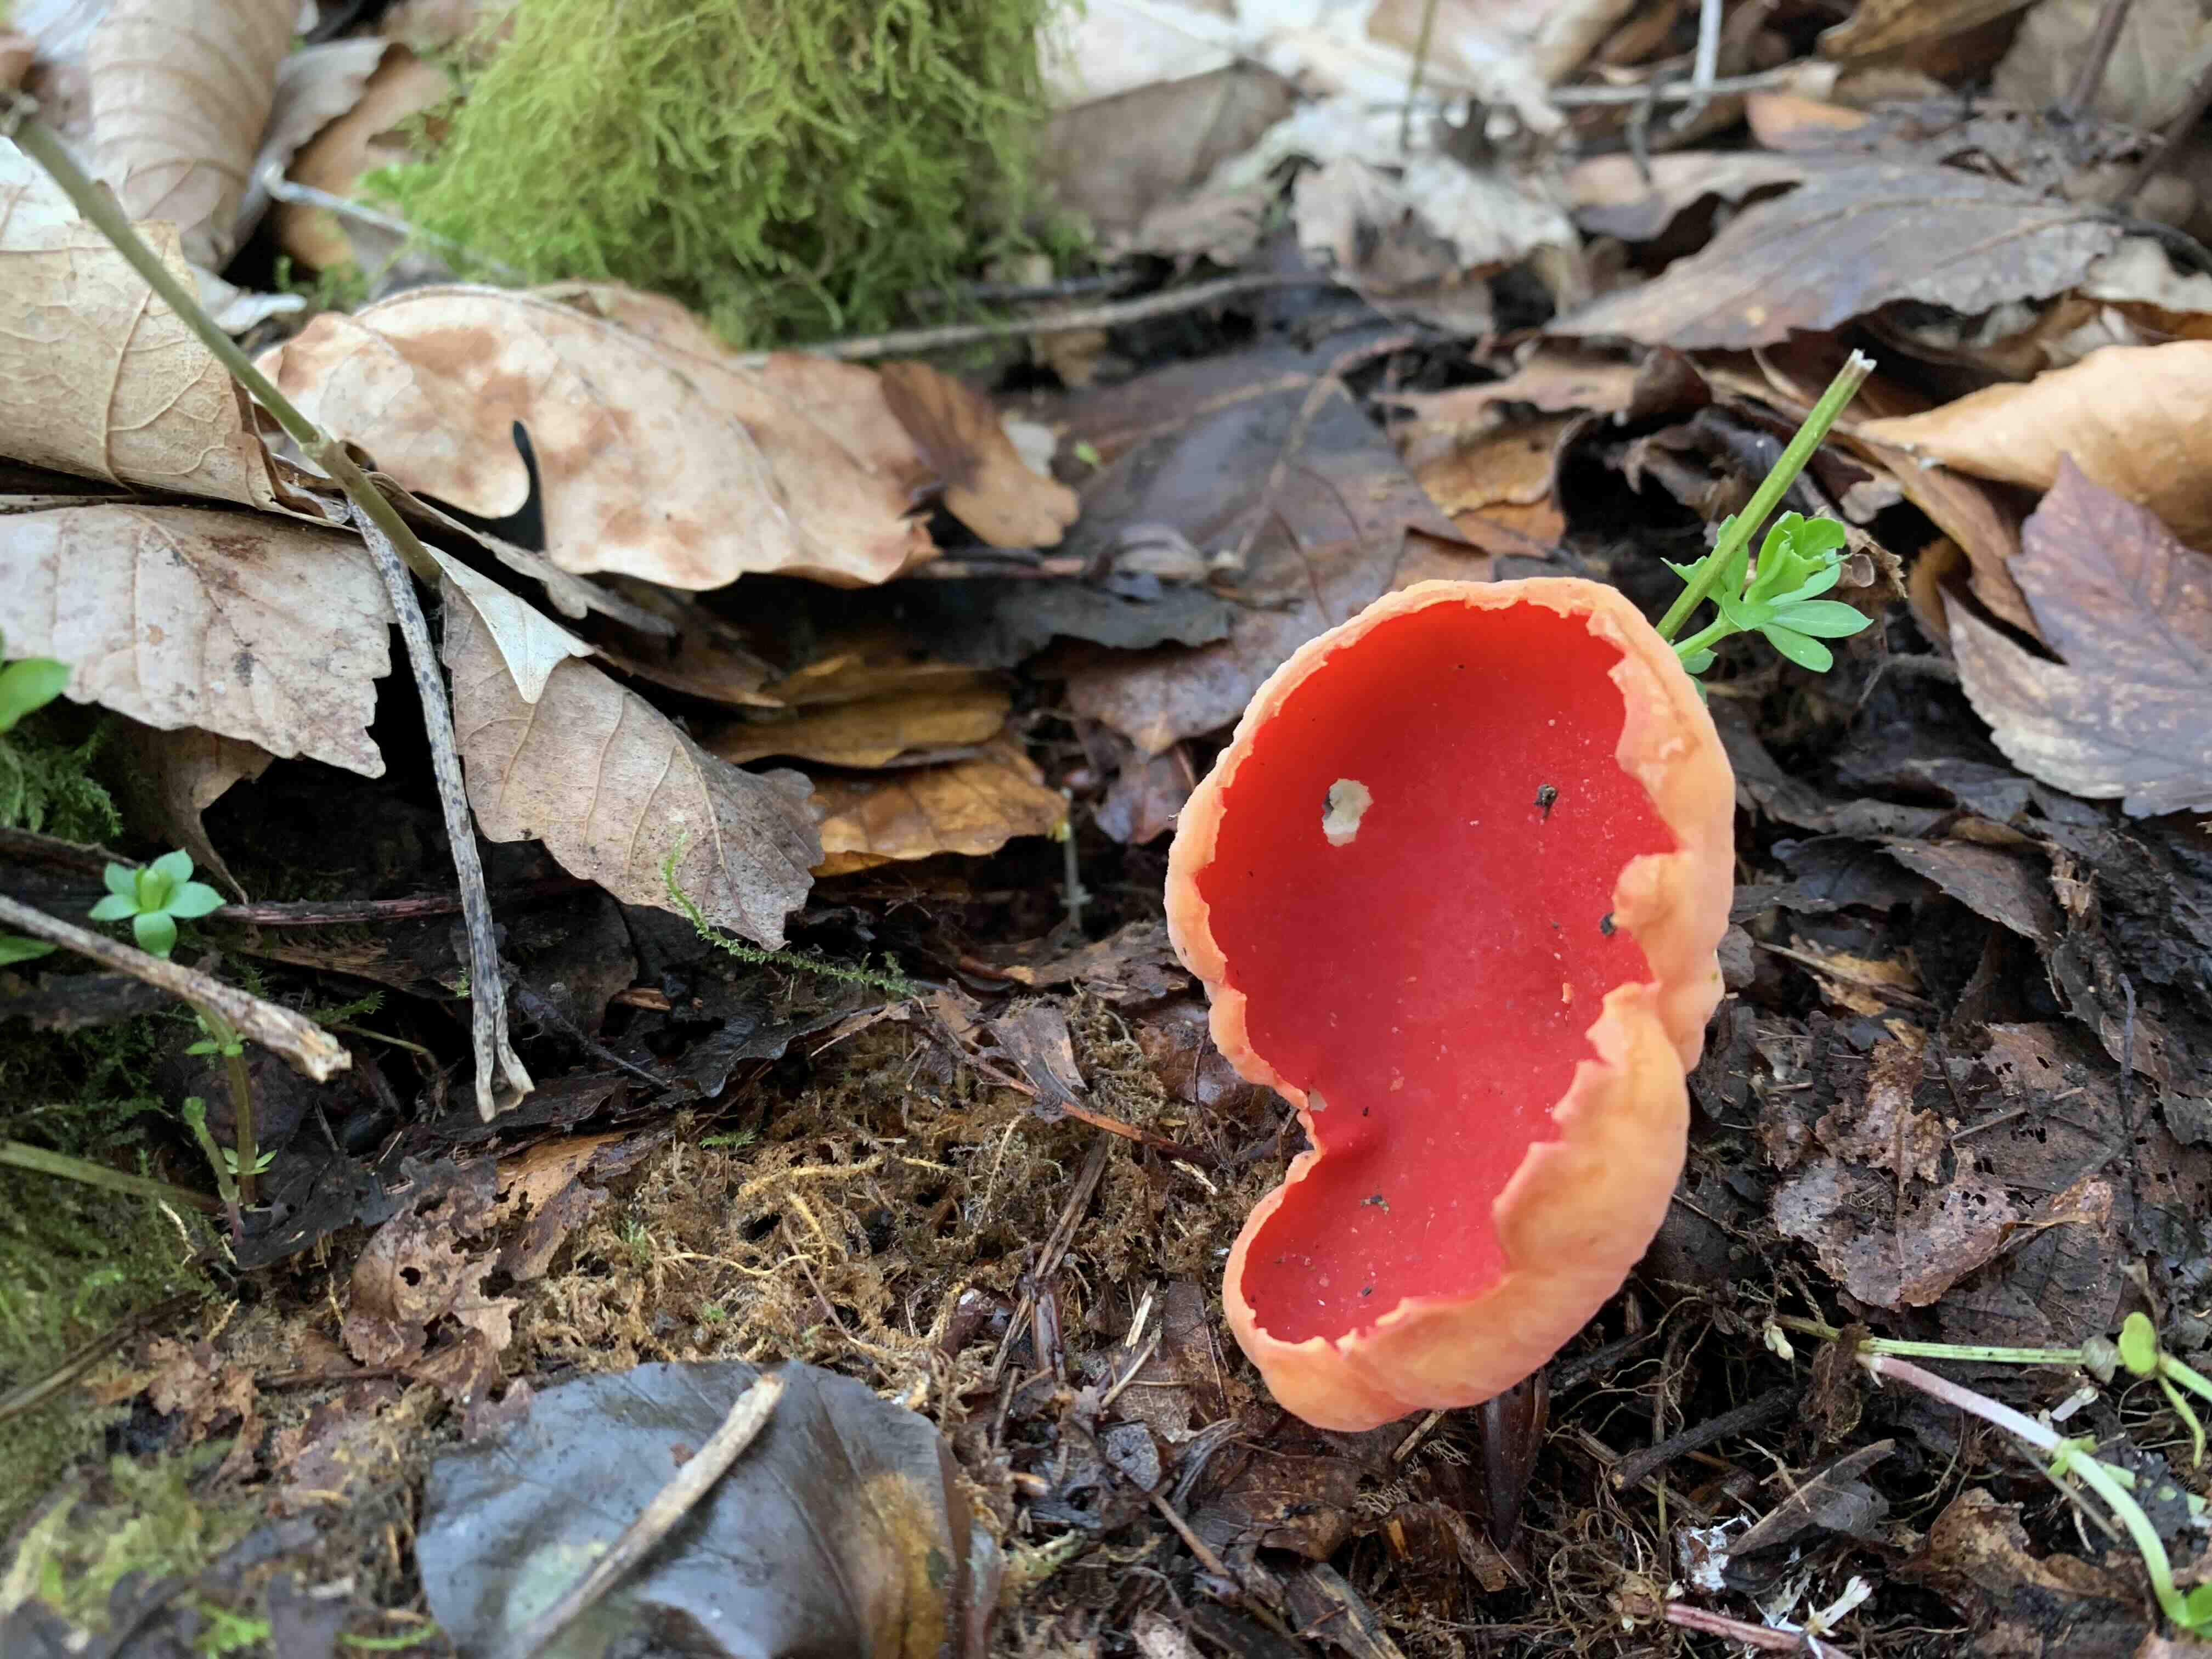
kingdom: Fungi
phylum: Ascomycota
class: Pezizomycetes
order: Pezizales
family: Sarcoscyphaceae
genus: Sarcoscypha
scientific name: Sarcoscypha austriaca
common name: krølhåret pragtbæger
